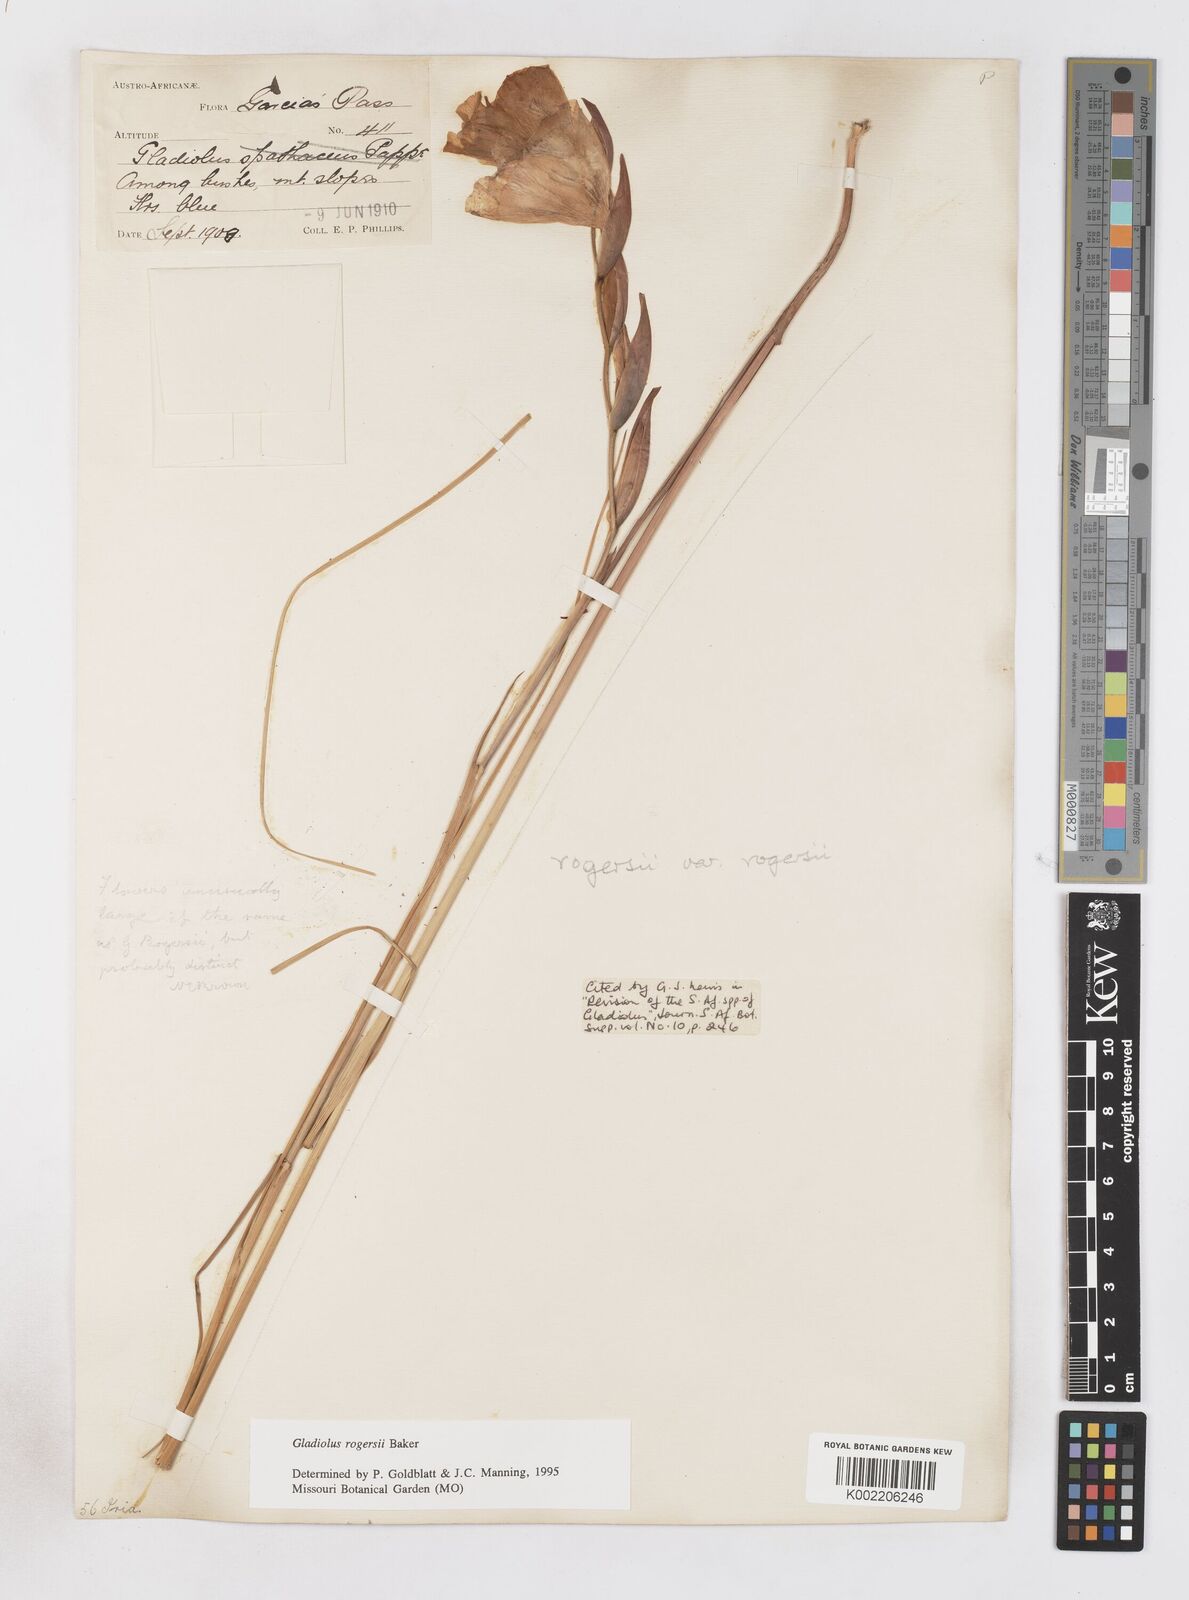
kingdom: Plantae
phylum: Tracheophyta
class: Liliopsida
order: Asparagales
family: Iridaceae
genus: Gladiolus
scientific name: Gladiolus rogersii
